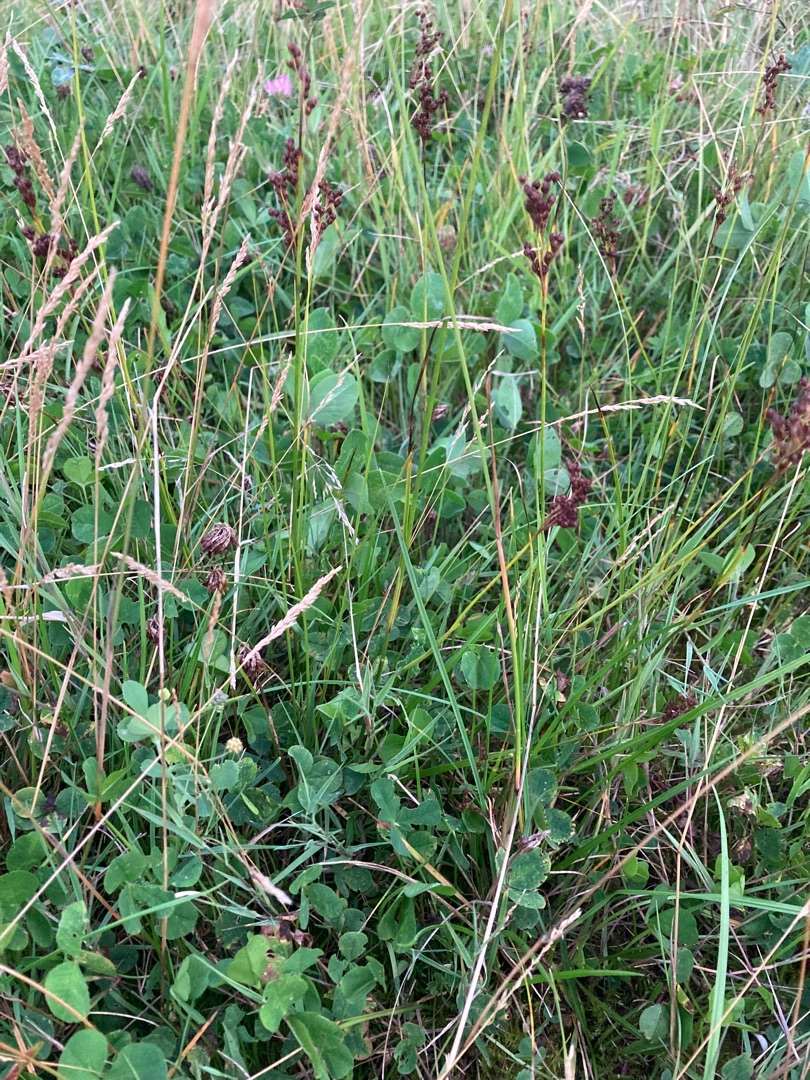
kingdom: Plantae
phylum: Tracheophyta
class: Liliopsida
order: Poales
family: Juncaceae
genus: Juncus
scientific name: Juncus compressus
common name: Fladstrået siv
